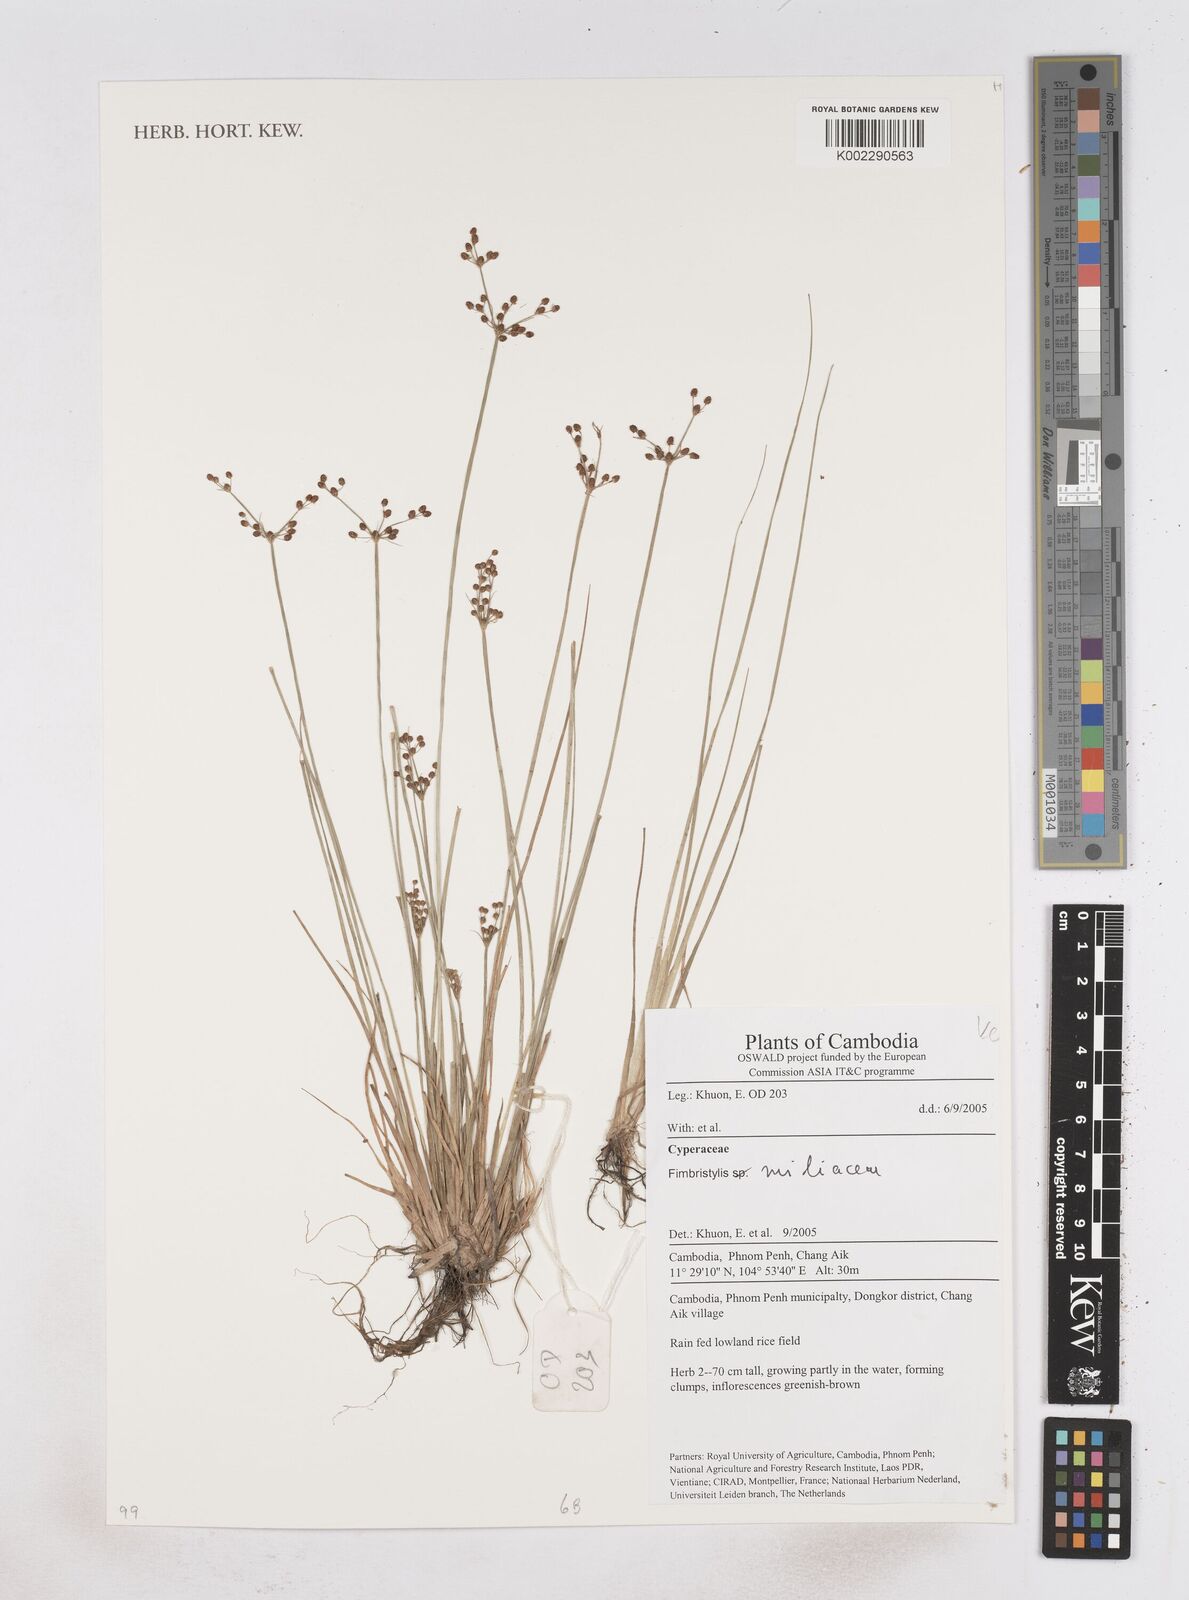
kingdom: Plantae
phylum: Tracheophyta
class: Liliopsida
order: Poales
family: Cyperaceae
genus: Fimbristylis
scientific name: Fimbristylis quinquangularis
